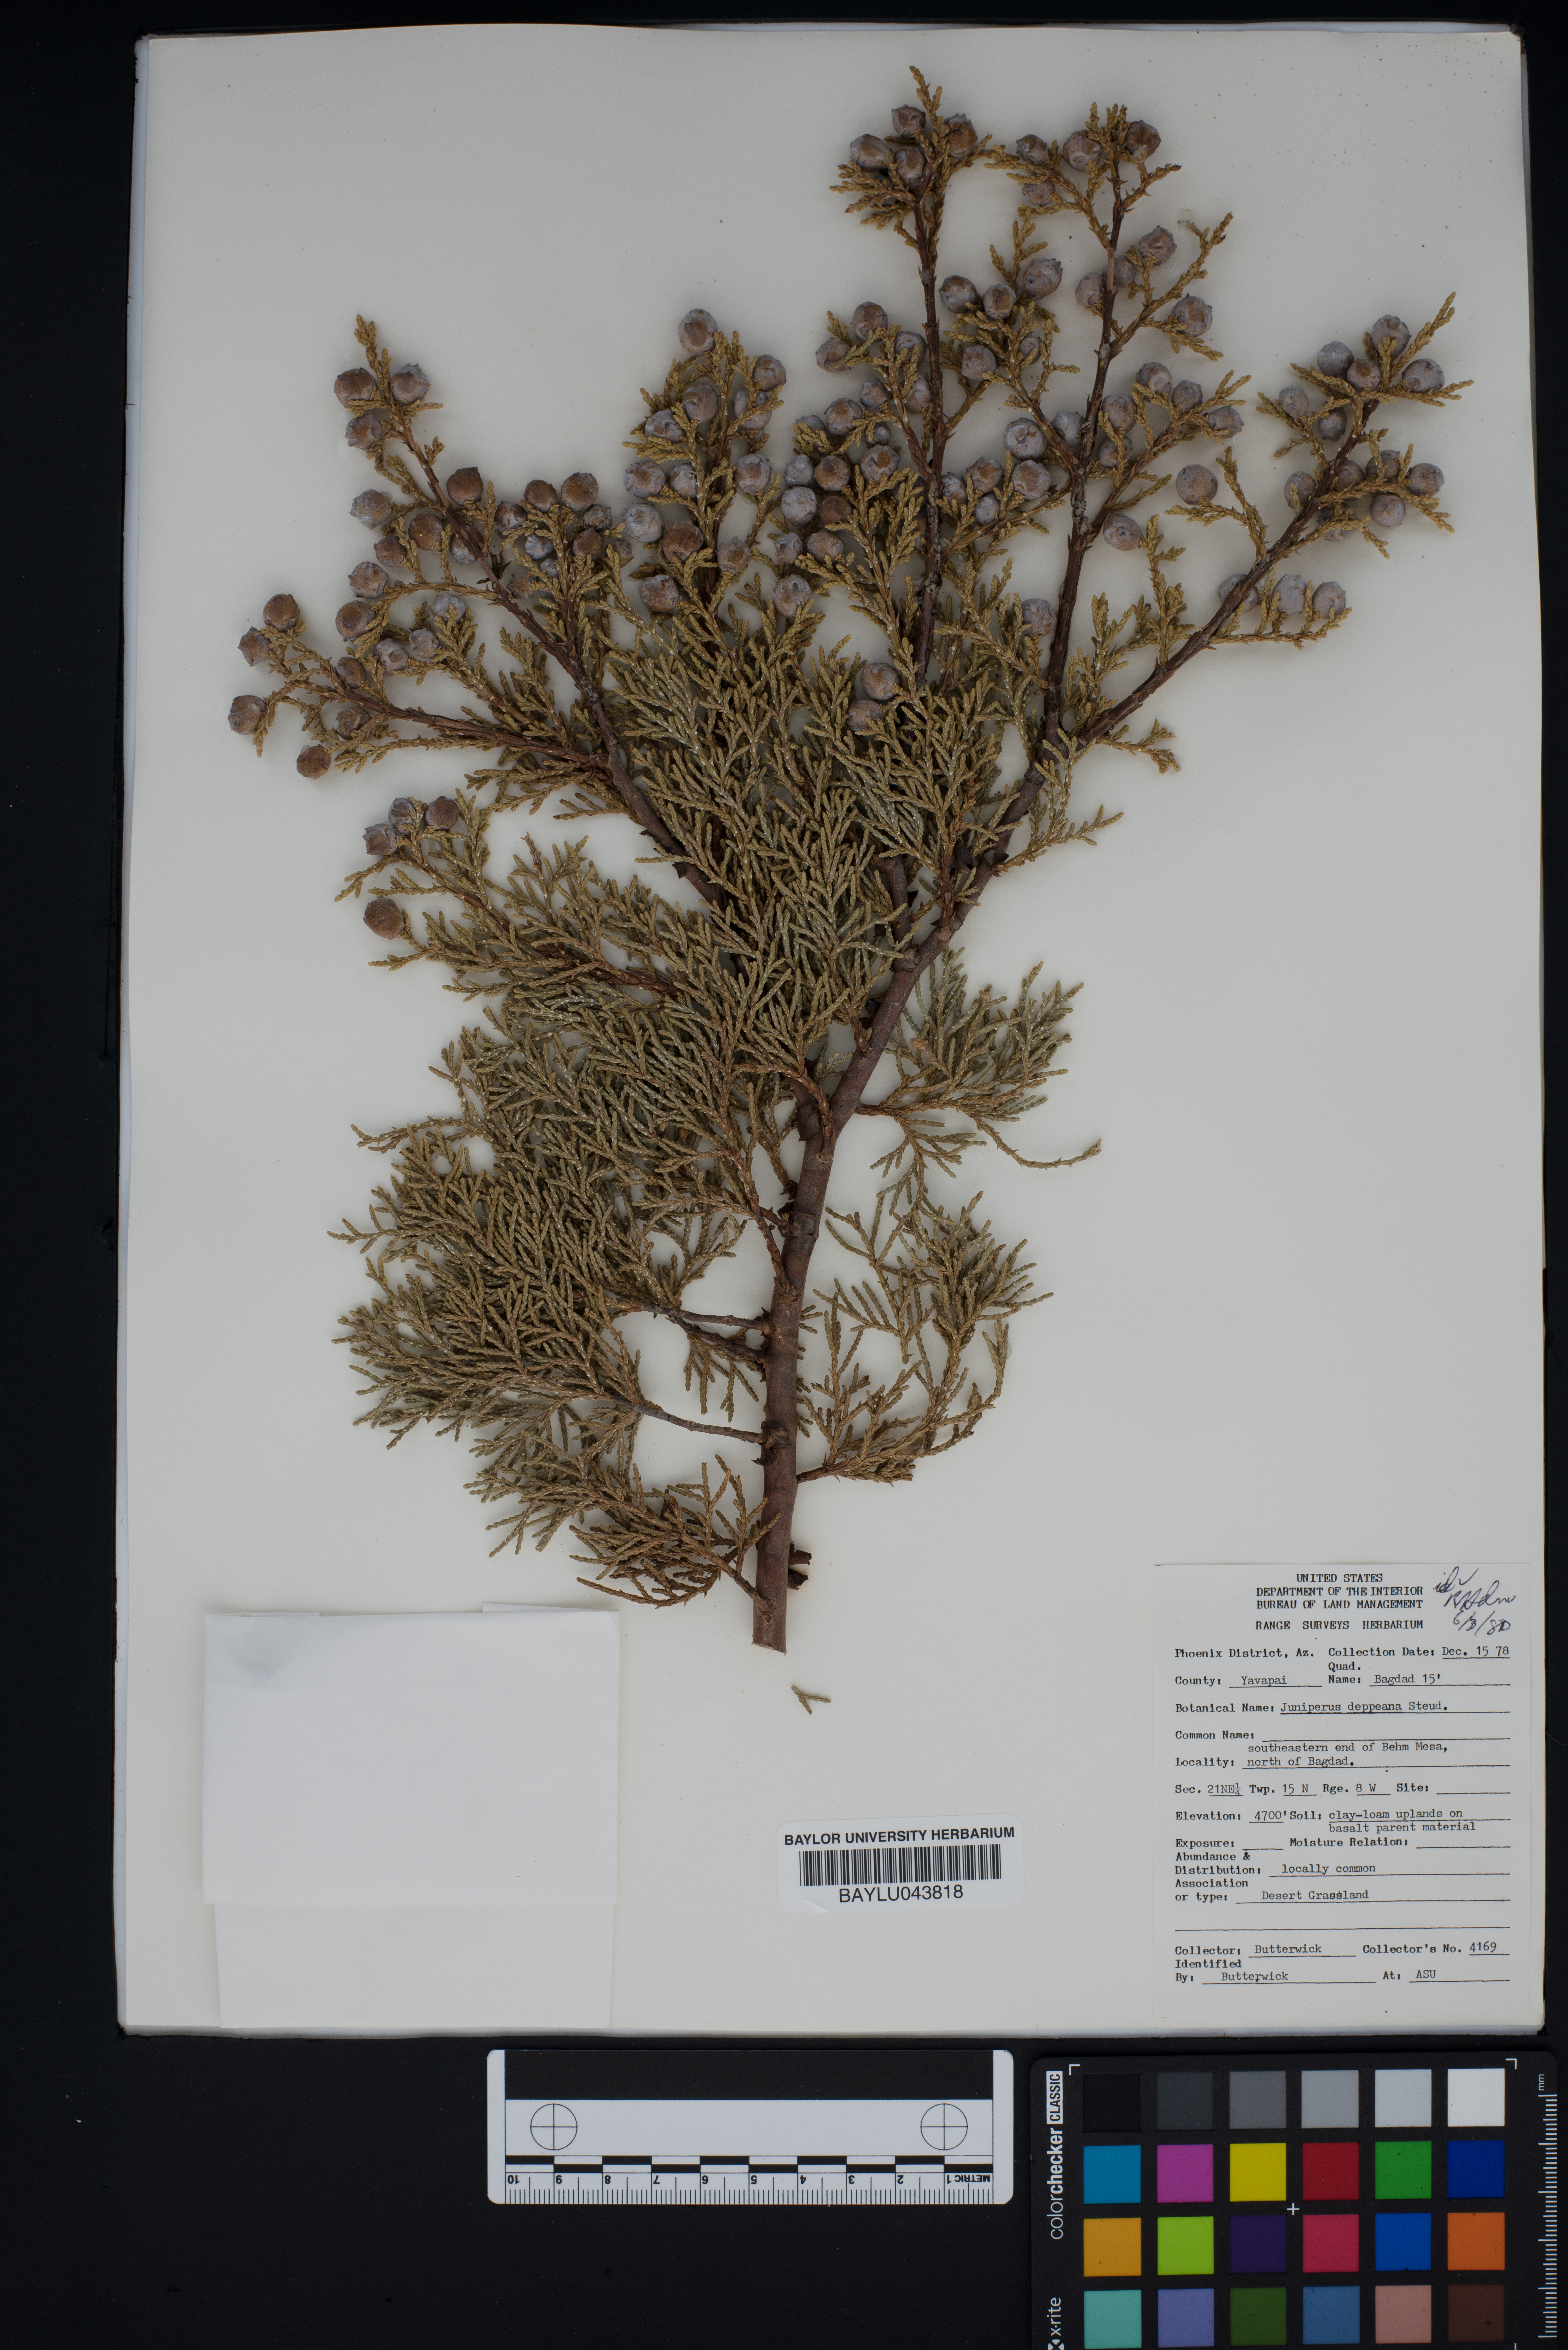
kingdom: Plantae
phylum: Tracheophyta
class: Pinopsida
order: Pinales
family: Cupressaceae
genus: Juniperus
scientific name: Juniperus deppeana
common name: Alligator juniper
